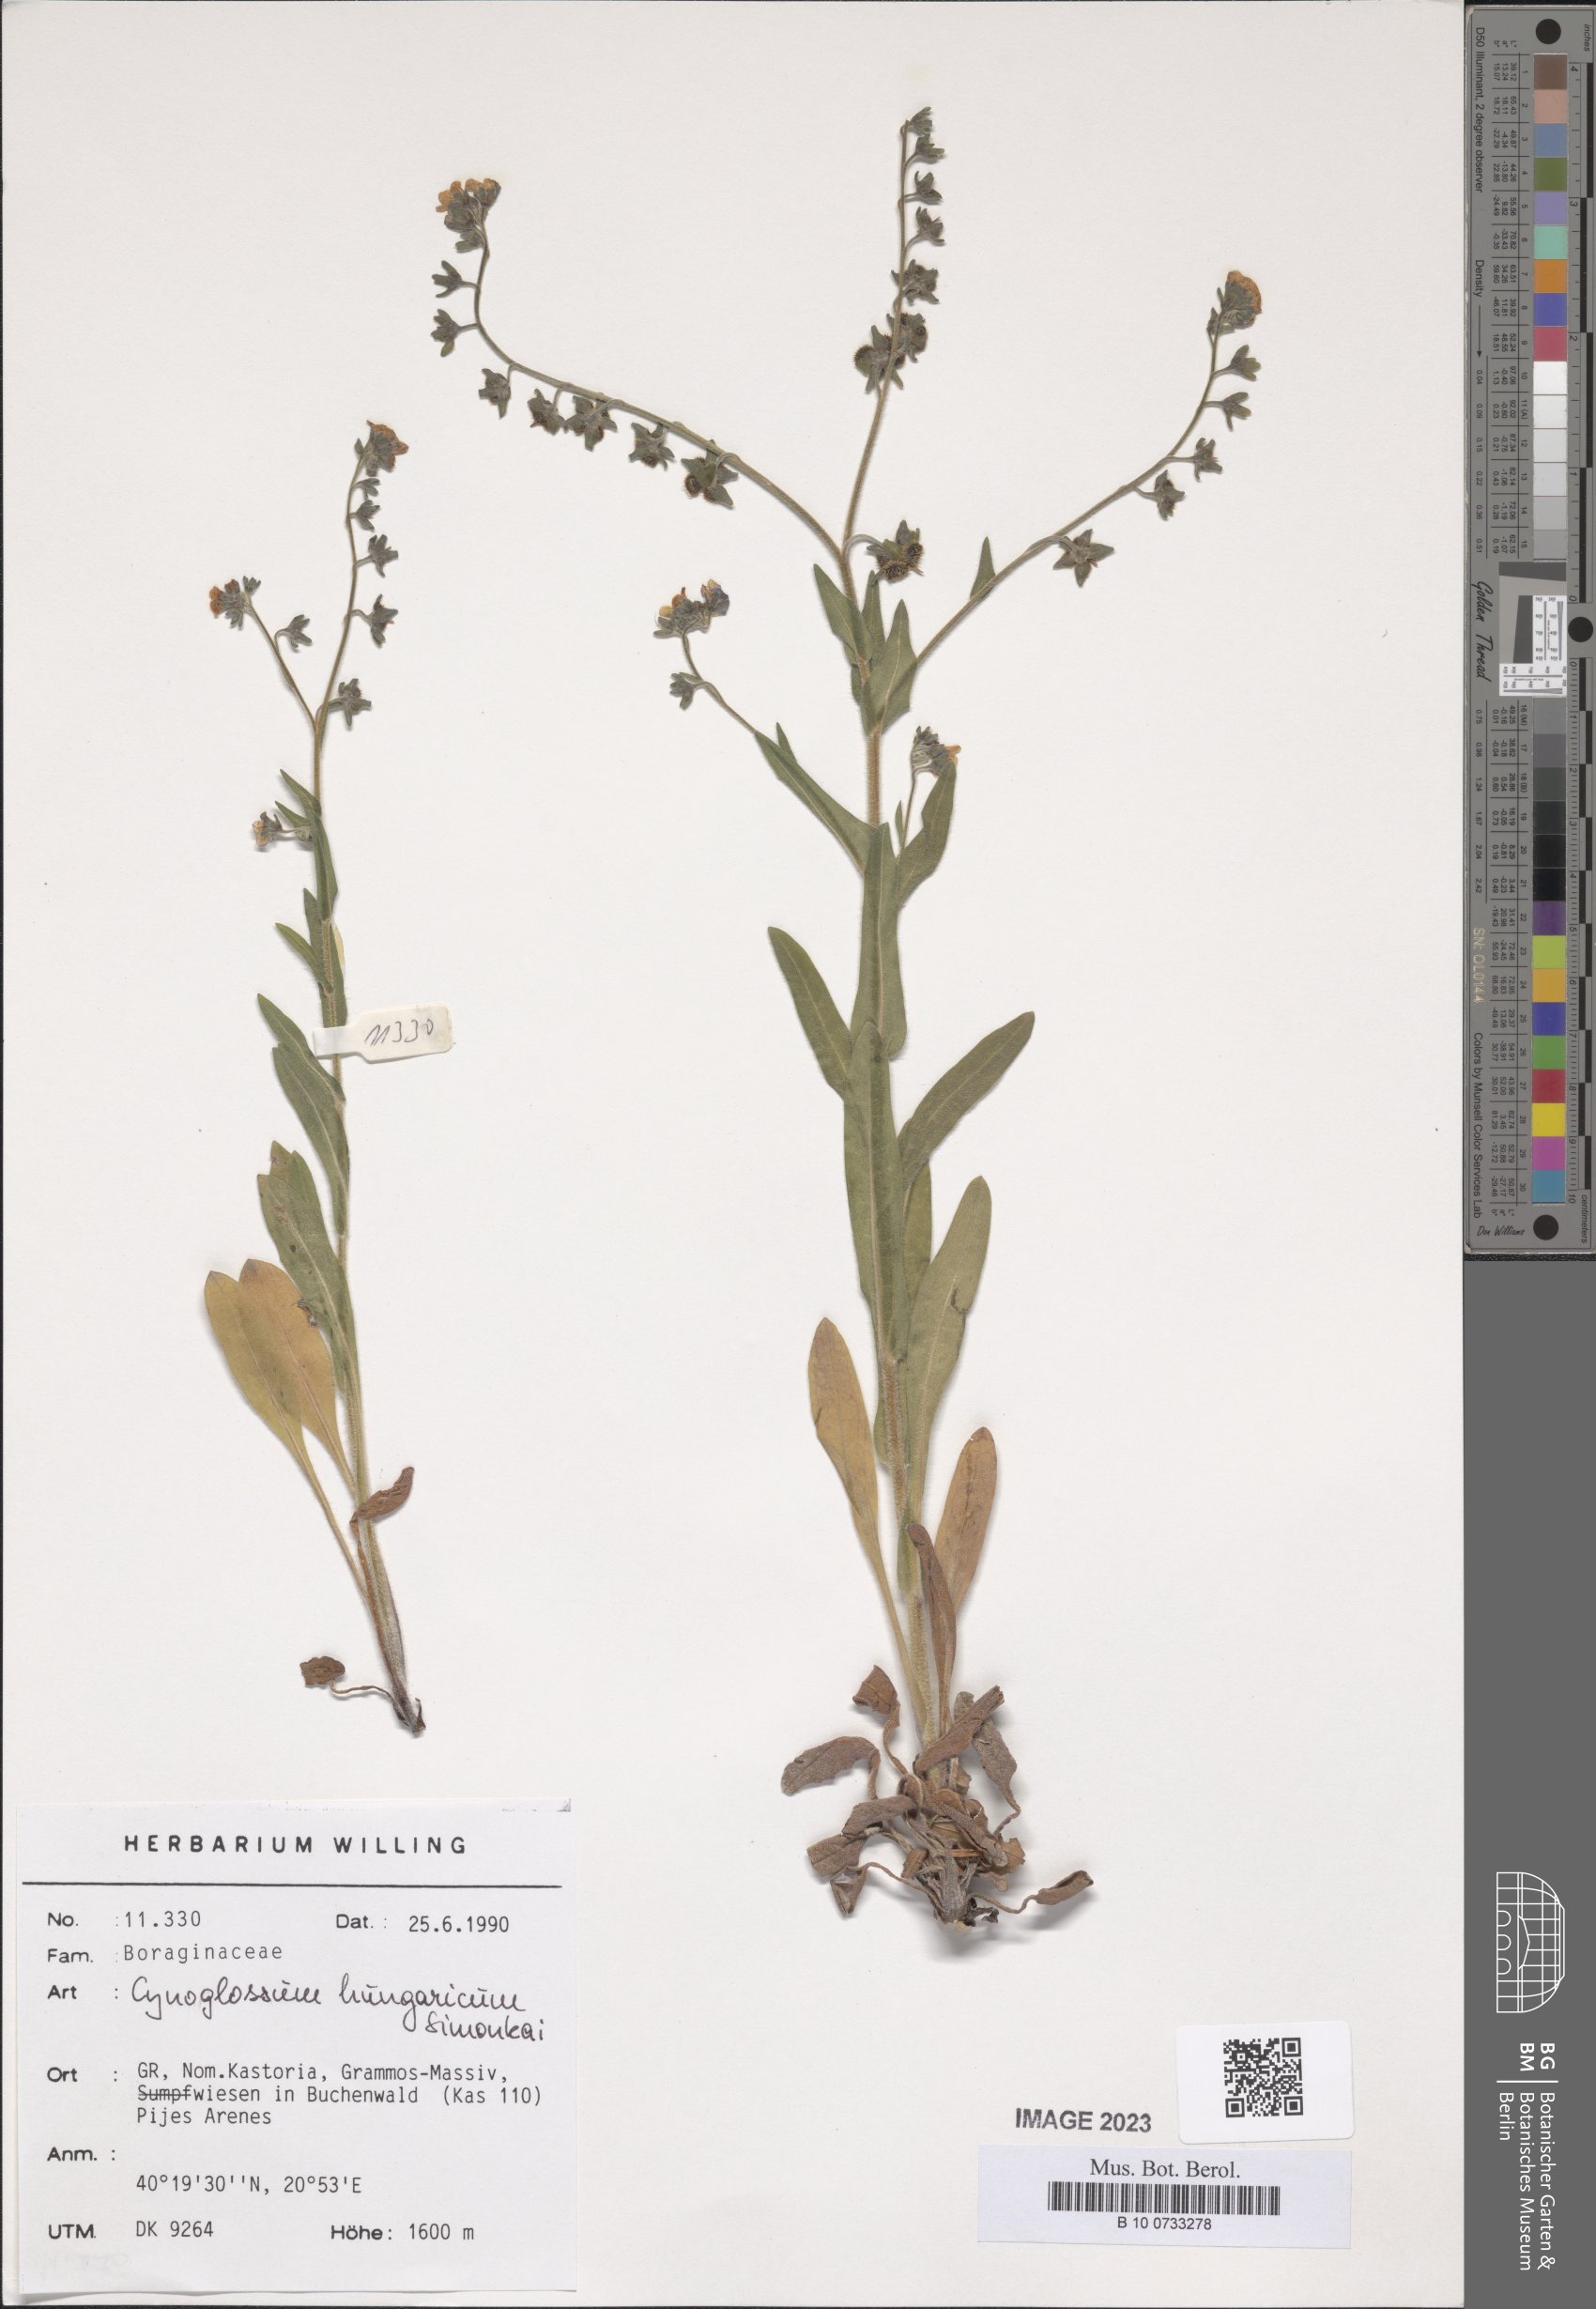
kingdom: Plantae
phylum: Tracheophyta
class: Magnoliopsida
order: Boraginales
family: Boraginaceae
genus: Cynoglossum
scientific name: Cynoglossum montanum
